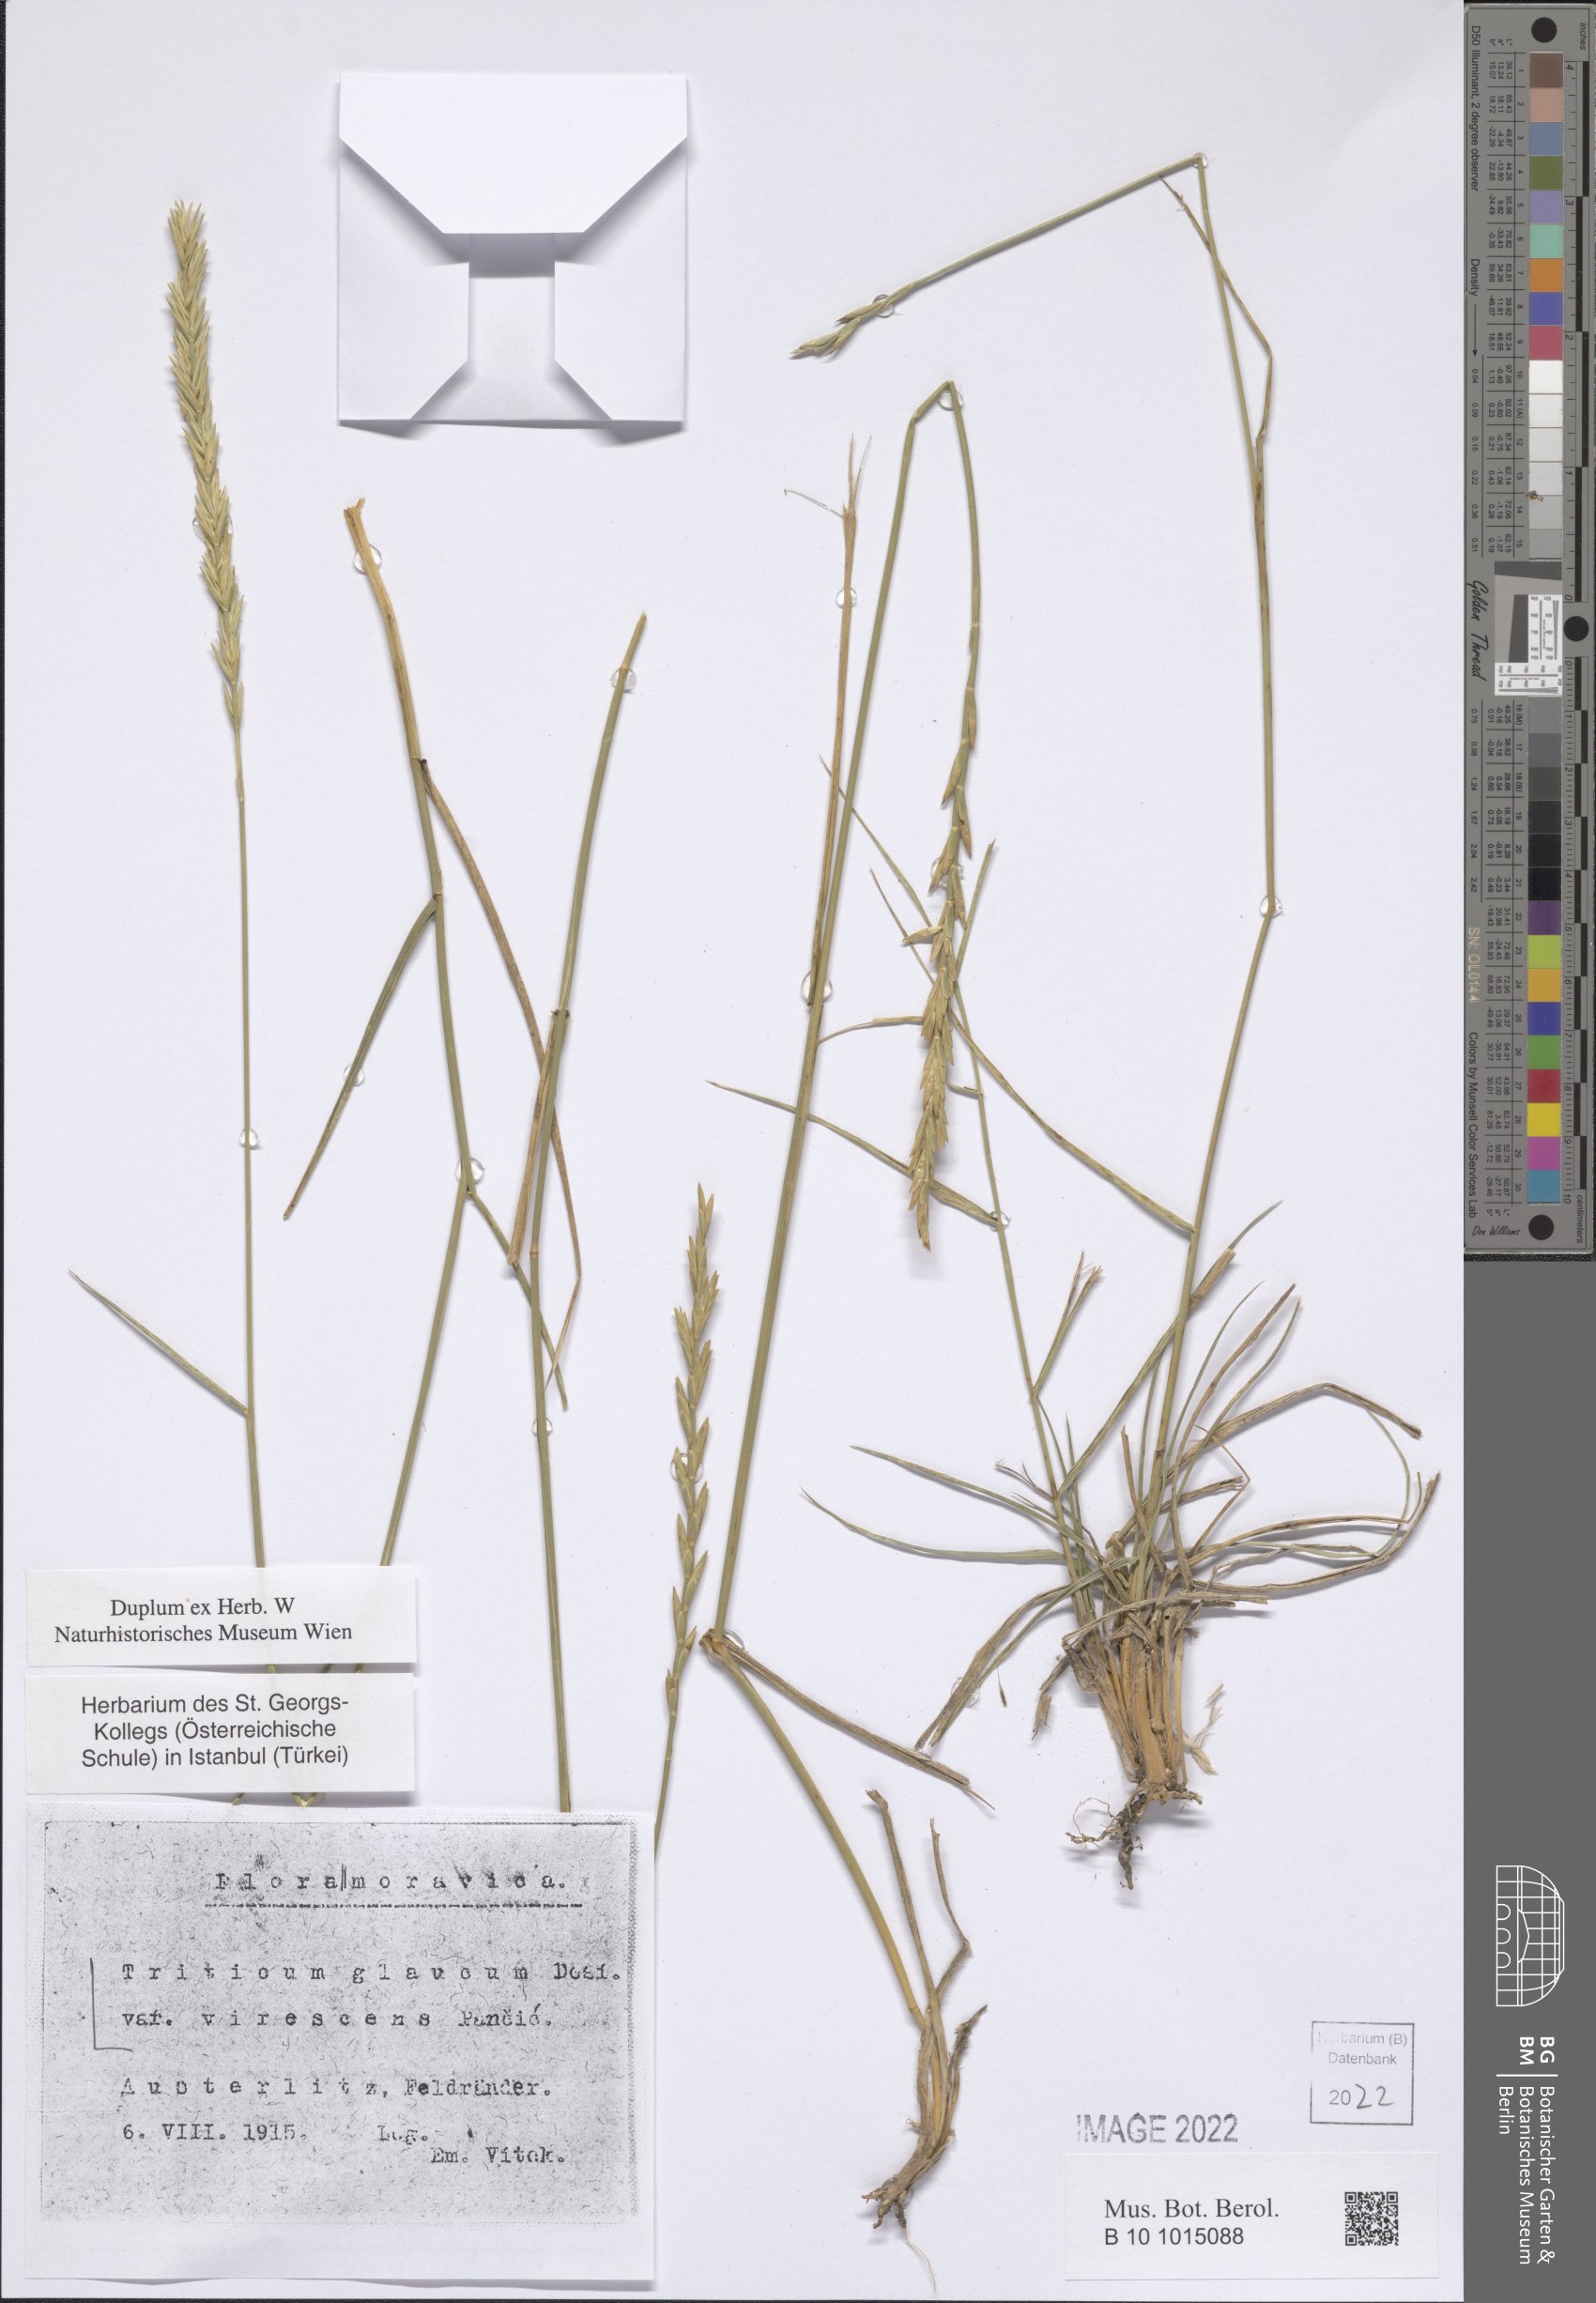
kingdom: Plantae
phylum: Tracheophyta
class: Liliopsida
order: Poales
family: Poaceae
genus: Thinopyrum
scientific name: Thinopyrum intermedium
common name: Intermediate wheatgrass
